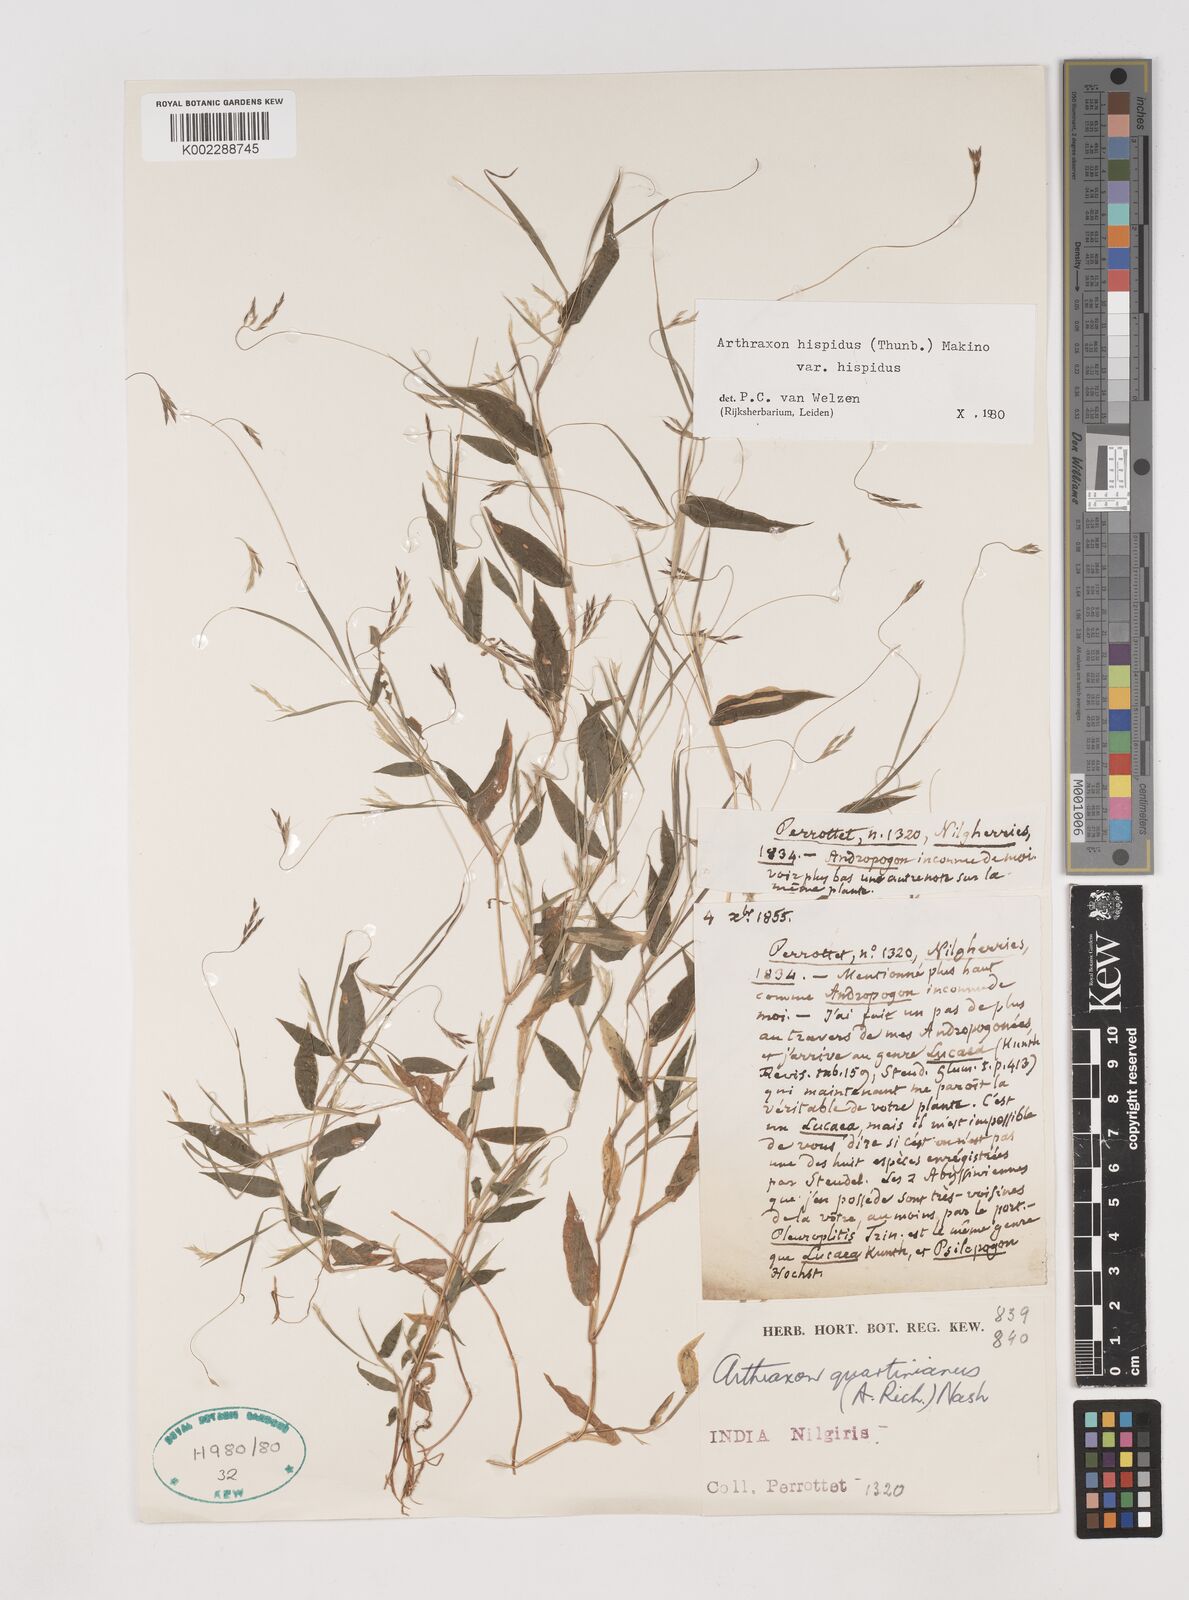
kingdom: Plantae
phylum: Tracheophyta
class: Liliopsida
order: Poales
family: Poaceae
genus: Arthraxon
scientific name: Arthraxon hispidus
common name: Small carpgrass
